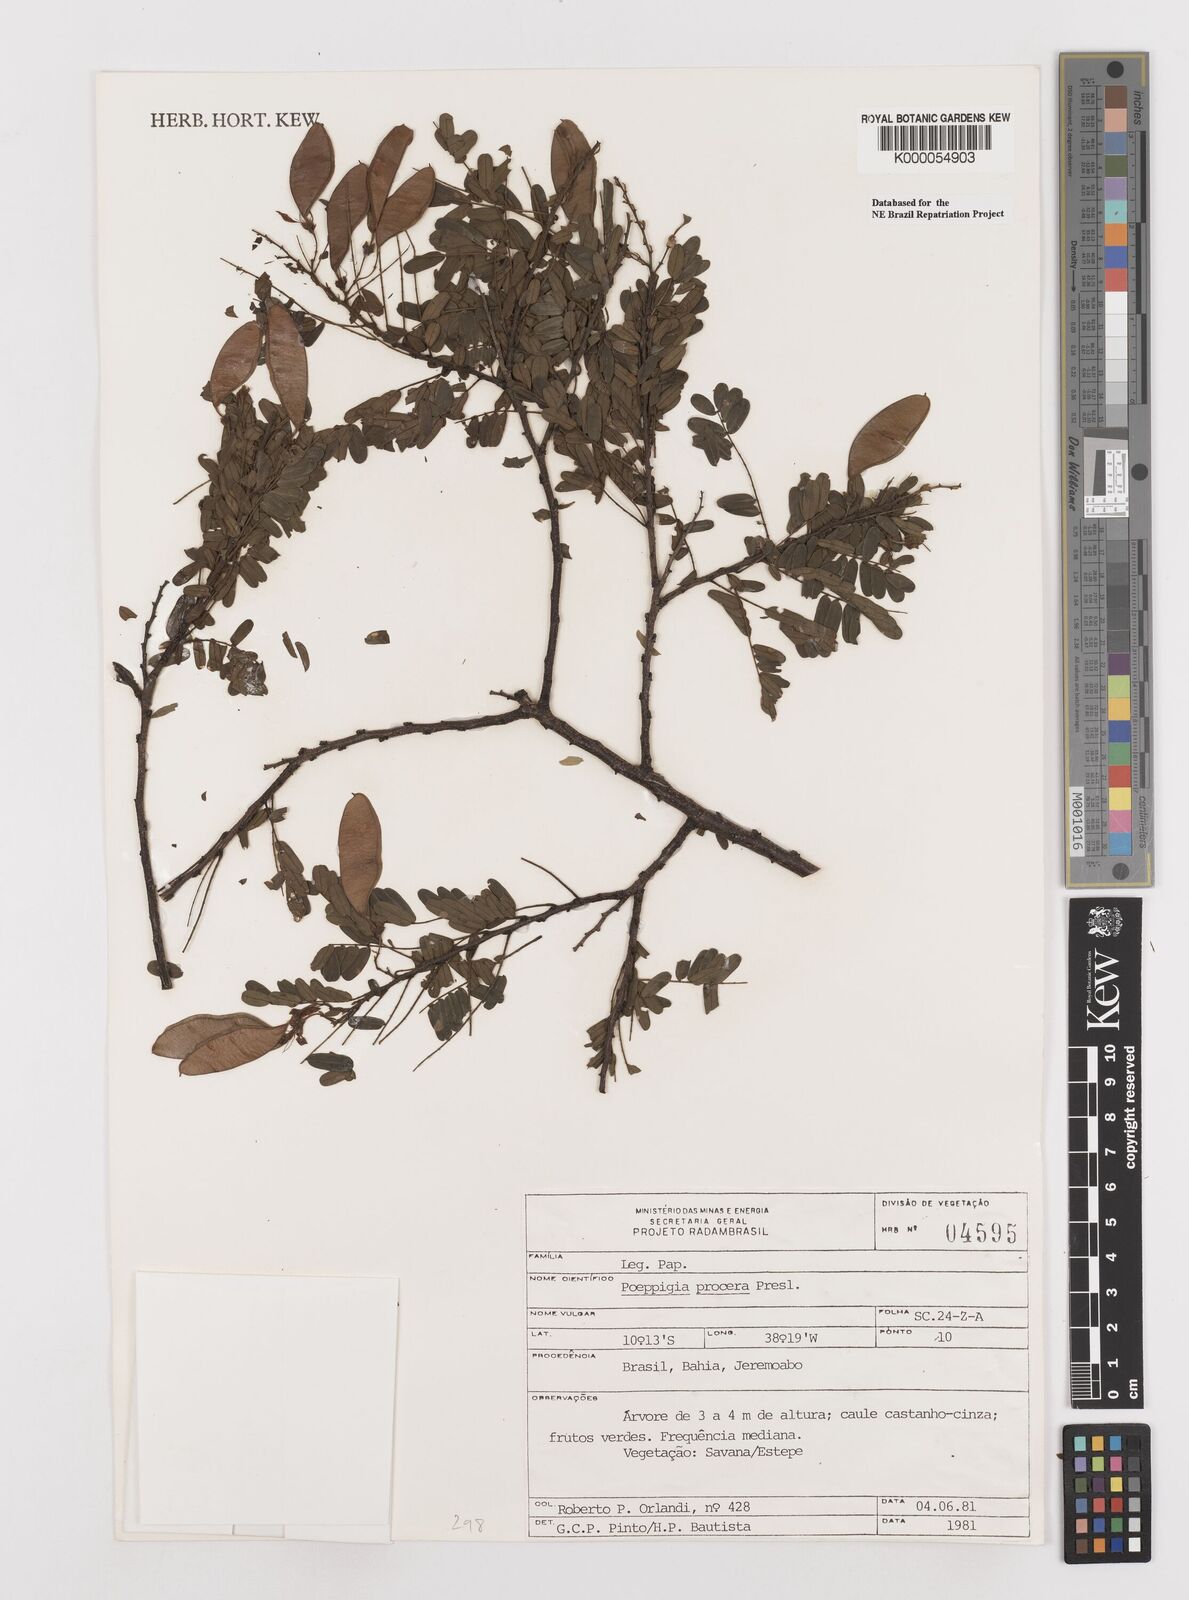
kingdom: Plantae
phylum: Tracheophyta
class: Magnoliopsida
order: Fabales
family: Fabaceae
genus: Poeppigia
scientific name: Poeppigia procera
